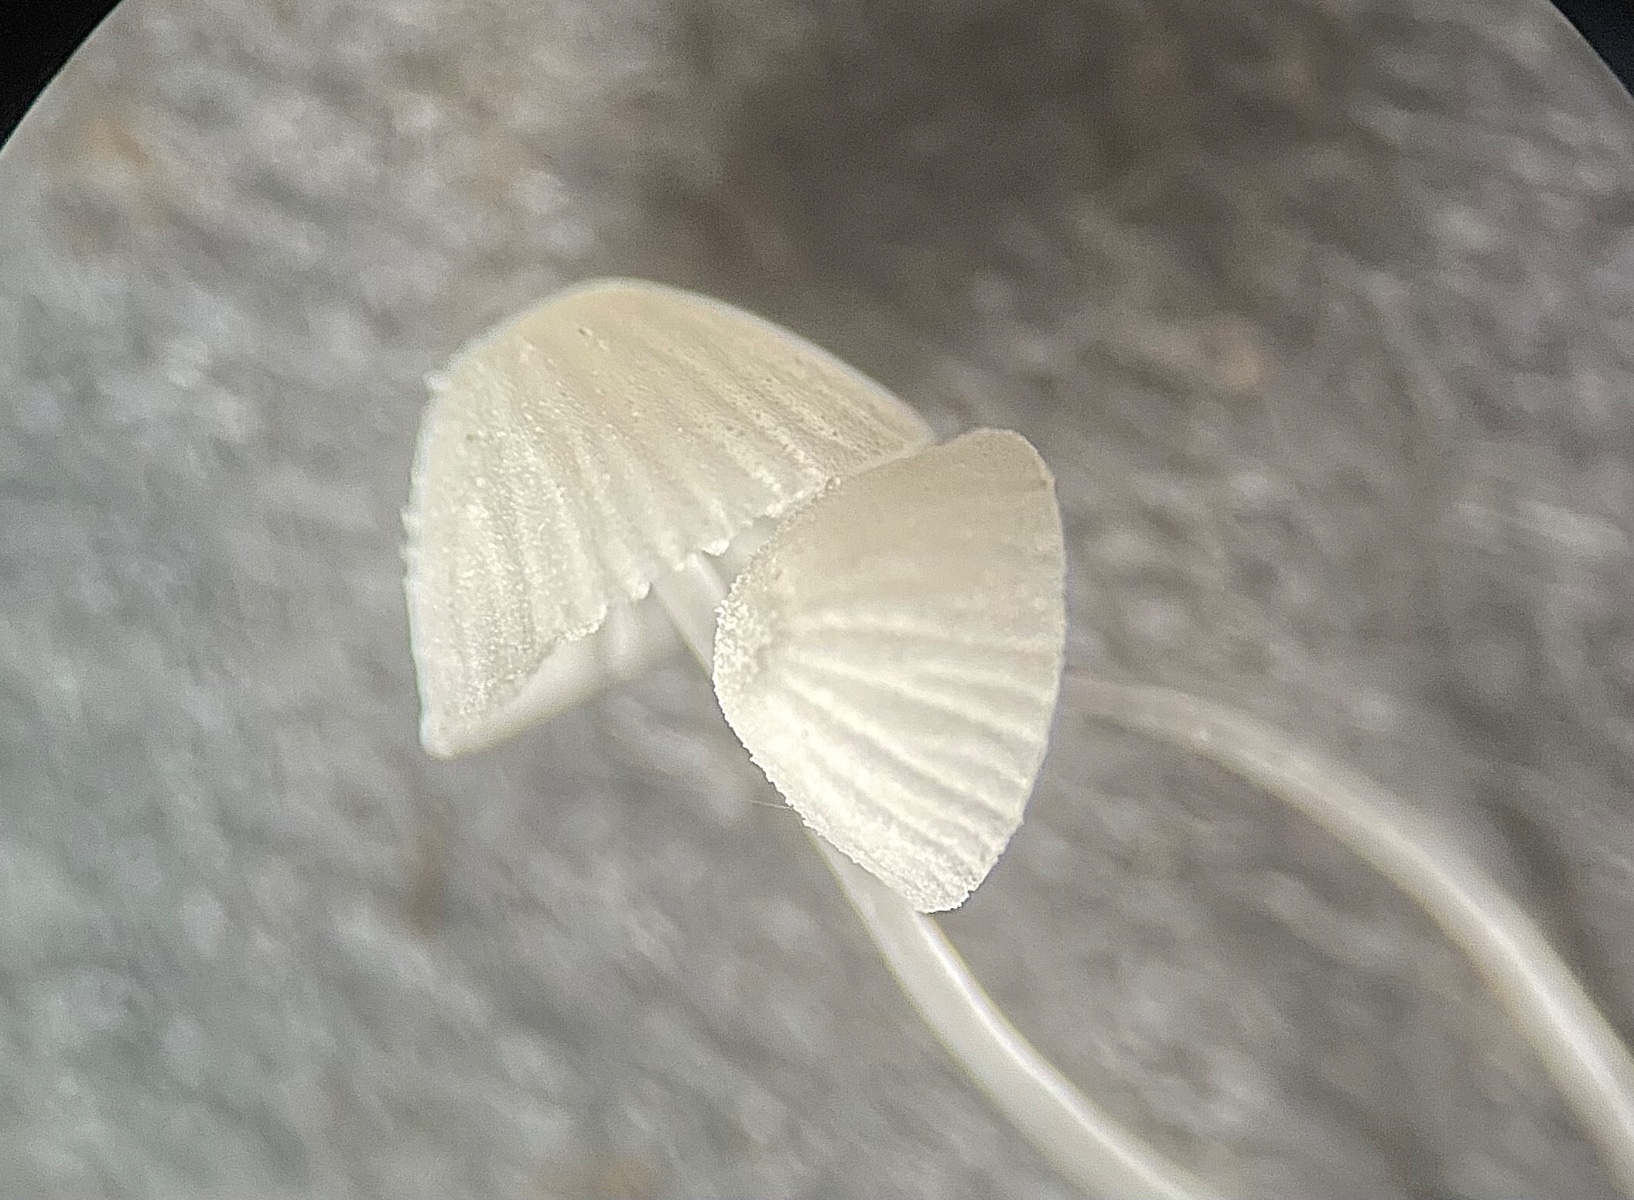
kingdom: Fungi
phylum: Basidiomycota
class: Agaricomycetes
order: Agaricales
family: Mycenaceae
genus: Mycena
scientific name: Mycena tenerrima
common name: pudret huesvamp
